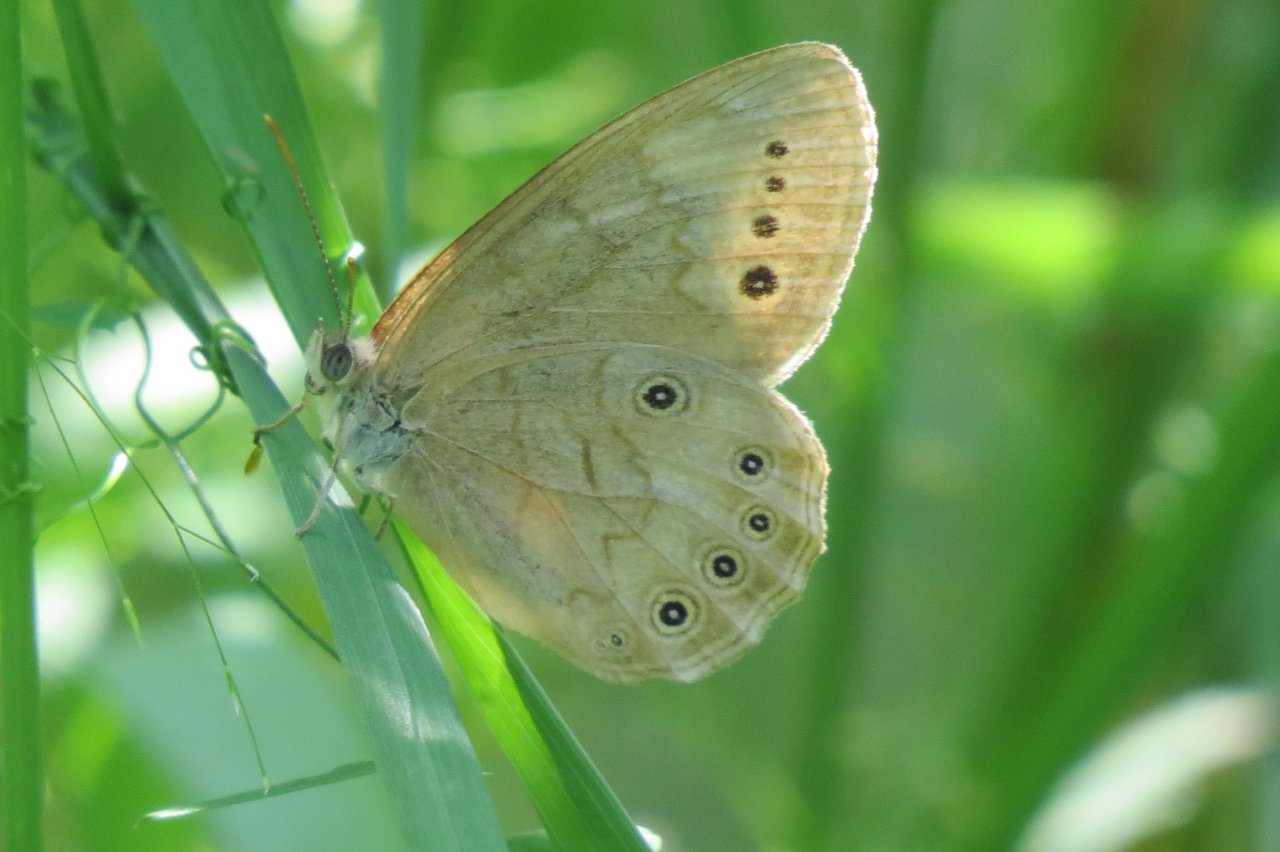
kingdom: Animalia
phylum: Arthropoda
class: Insecta
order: Lepidoptera
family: Nymphalidae
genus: Lethe
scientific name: Lethe eurydice
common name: Eyed Brown
